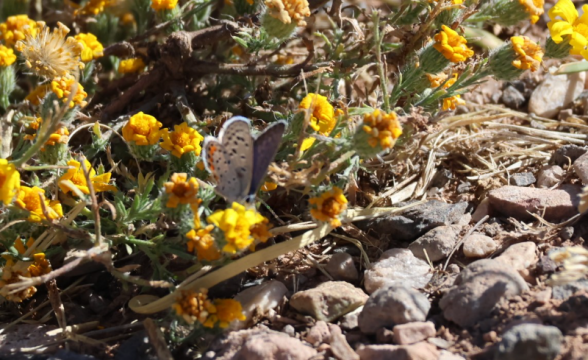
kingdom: Animalia
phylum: Arthropoda
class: Insecta
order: Lepidoptera
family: Lycaenidae
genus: Plebejus
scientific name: Plebejus acmon
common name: Acmon Blue
